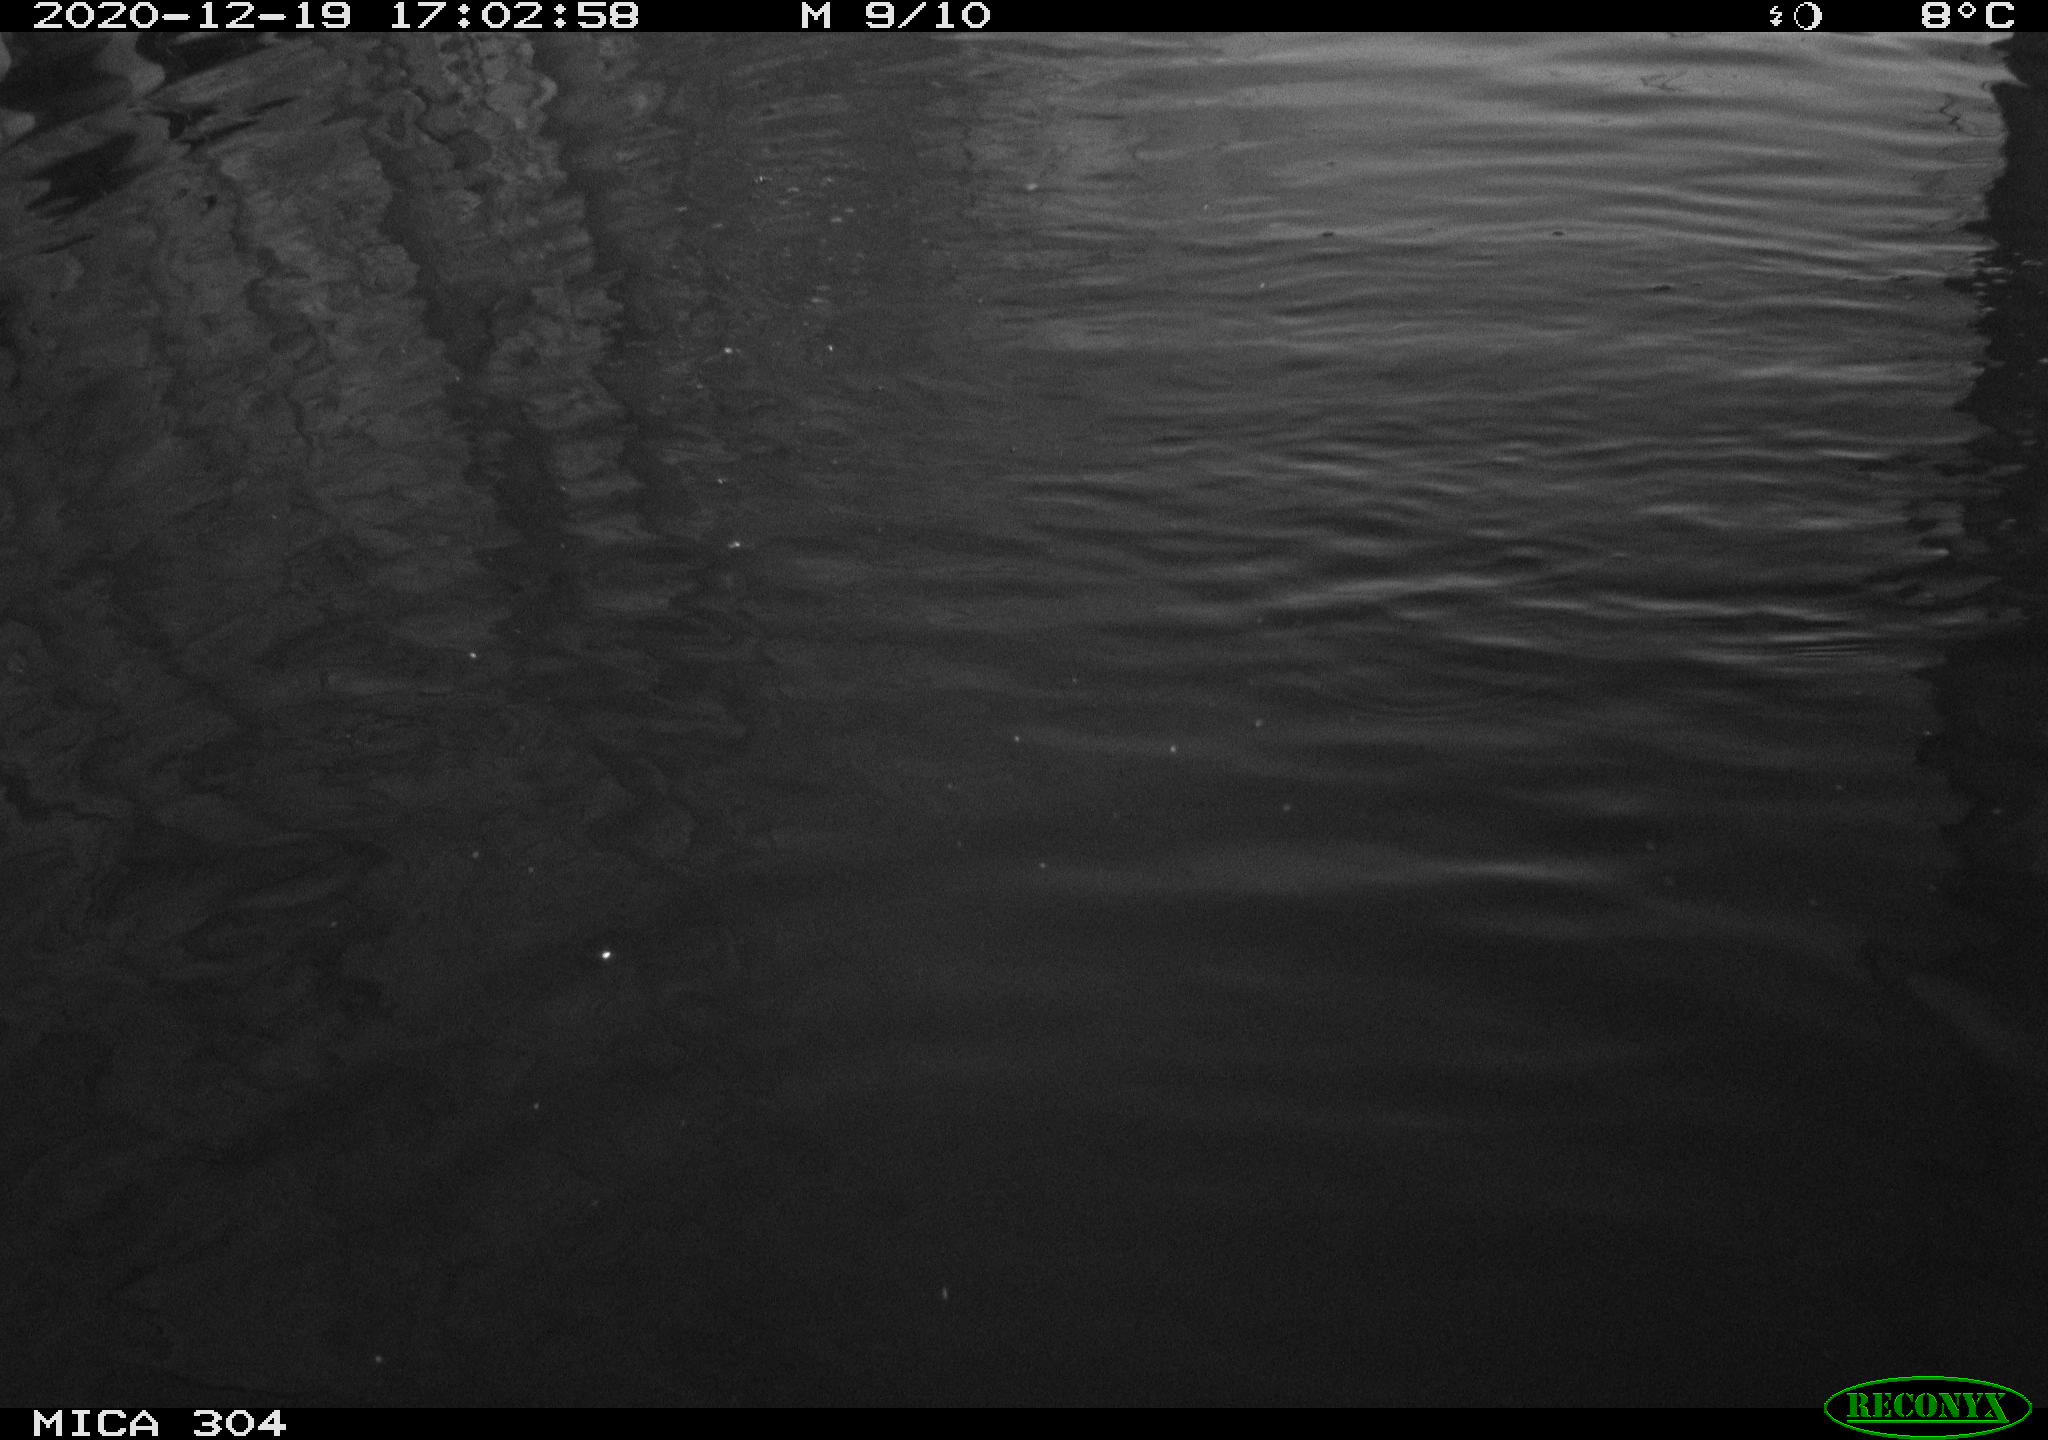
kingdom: Animalia
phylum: Chordata
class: Aves
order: Gruiformes
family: Rallidae
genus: Gallinula
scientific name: Gallinula chloropus
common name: Common moorhen
